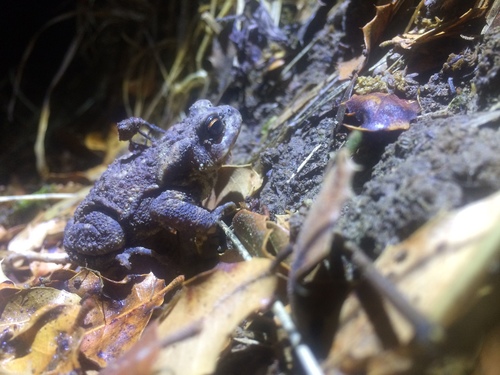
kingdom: Animalia
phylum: Chordata
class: Amphibia
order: Anura
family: Bufonidae
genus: Bufo
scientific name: Bufo spinosus
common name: Western common toad
